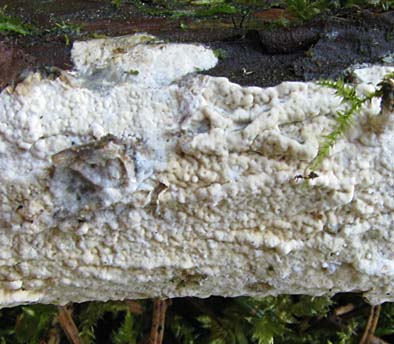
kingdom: Fungi
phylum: Basidiomycota
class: Agaricomycetes
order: Polyporales
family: Irpicaceae
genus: Crystallicutis
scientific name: Crystallicutis serpens
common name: gråviolet barkhinde
